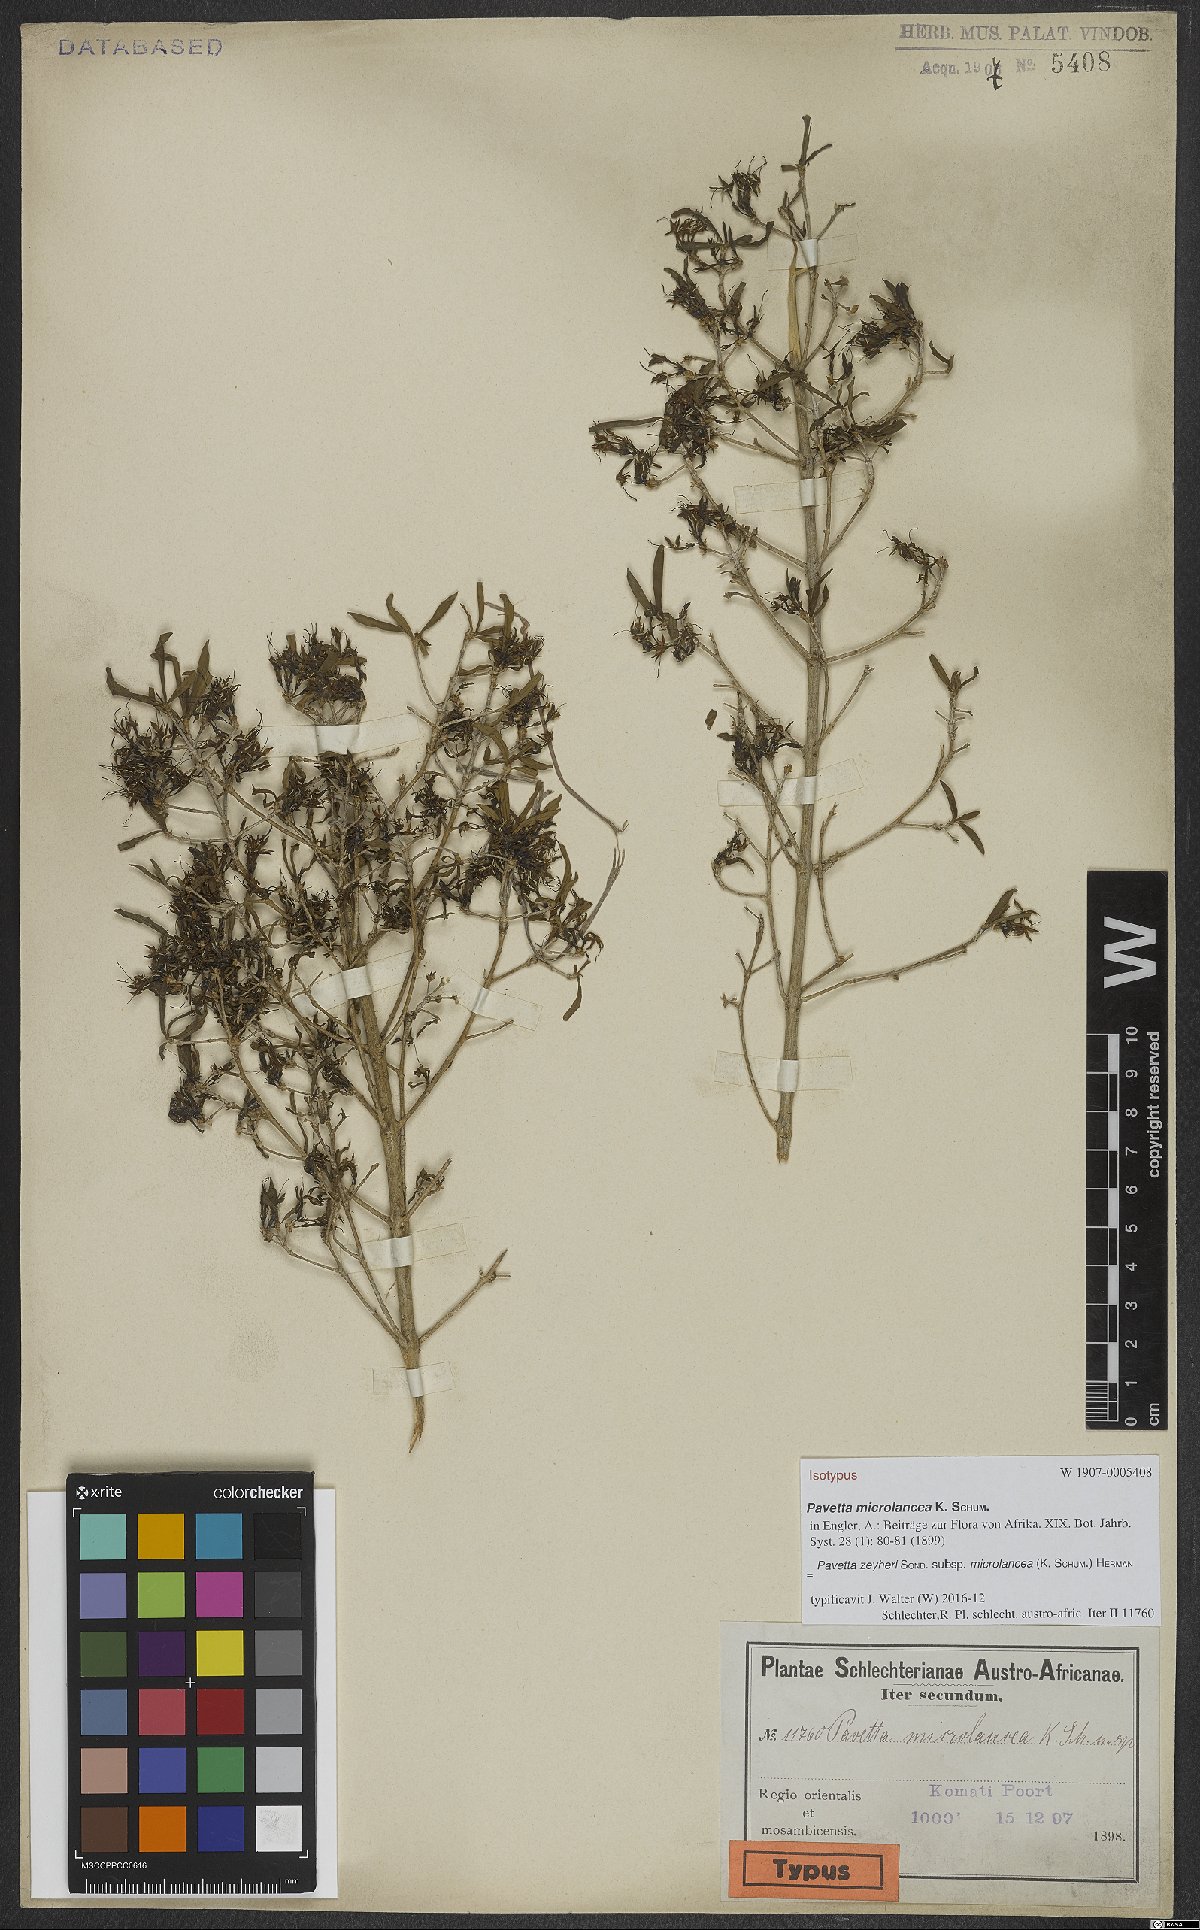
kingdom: Plantae
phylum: Tracheophyta
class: Magnoliopsida
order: Gentianales
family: Rubiaceae
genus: Pavetta
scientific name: Pavetta zeyheri
